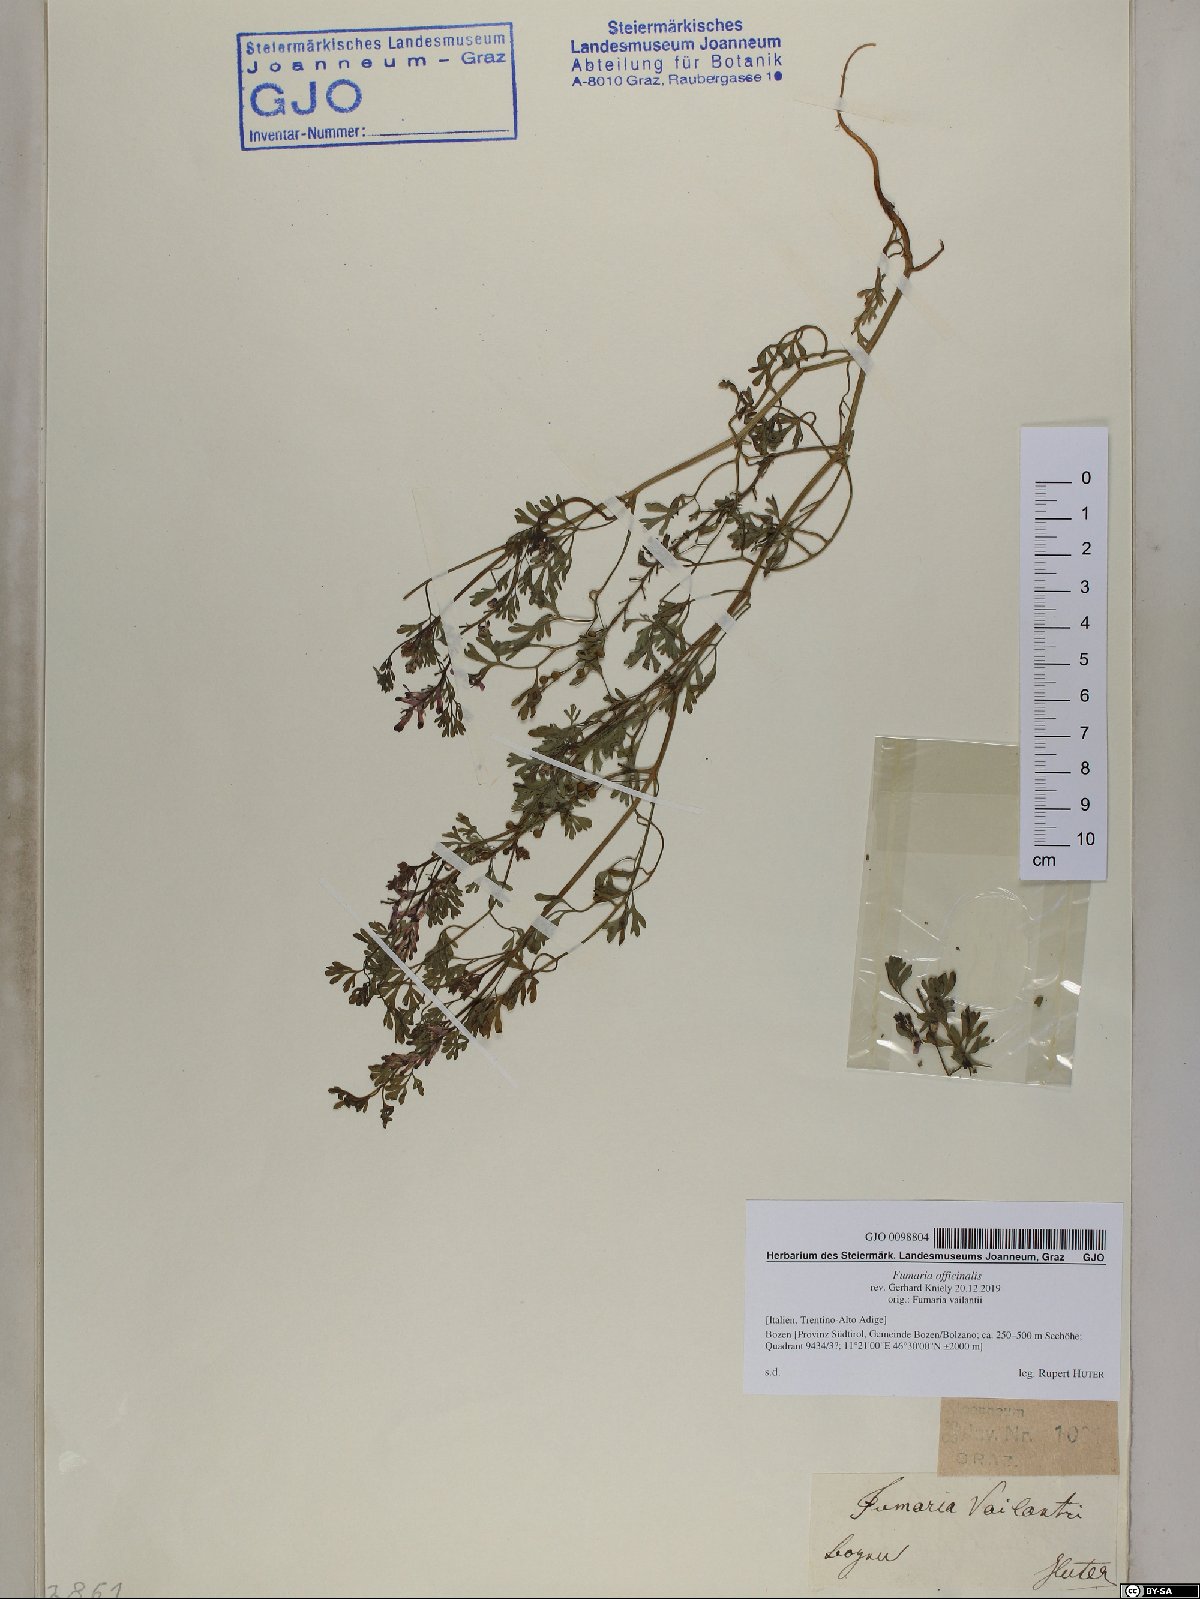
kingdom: Plantae
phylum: Tracheophyta
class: Magnoliopsida
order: Ranunculales
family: Papaveraceae
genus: Fumaria
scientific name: Fumaria officinalis
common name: Common fumitory
